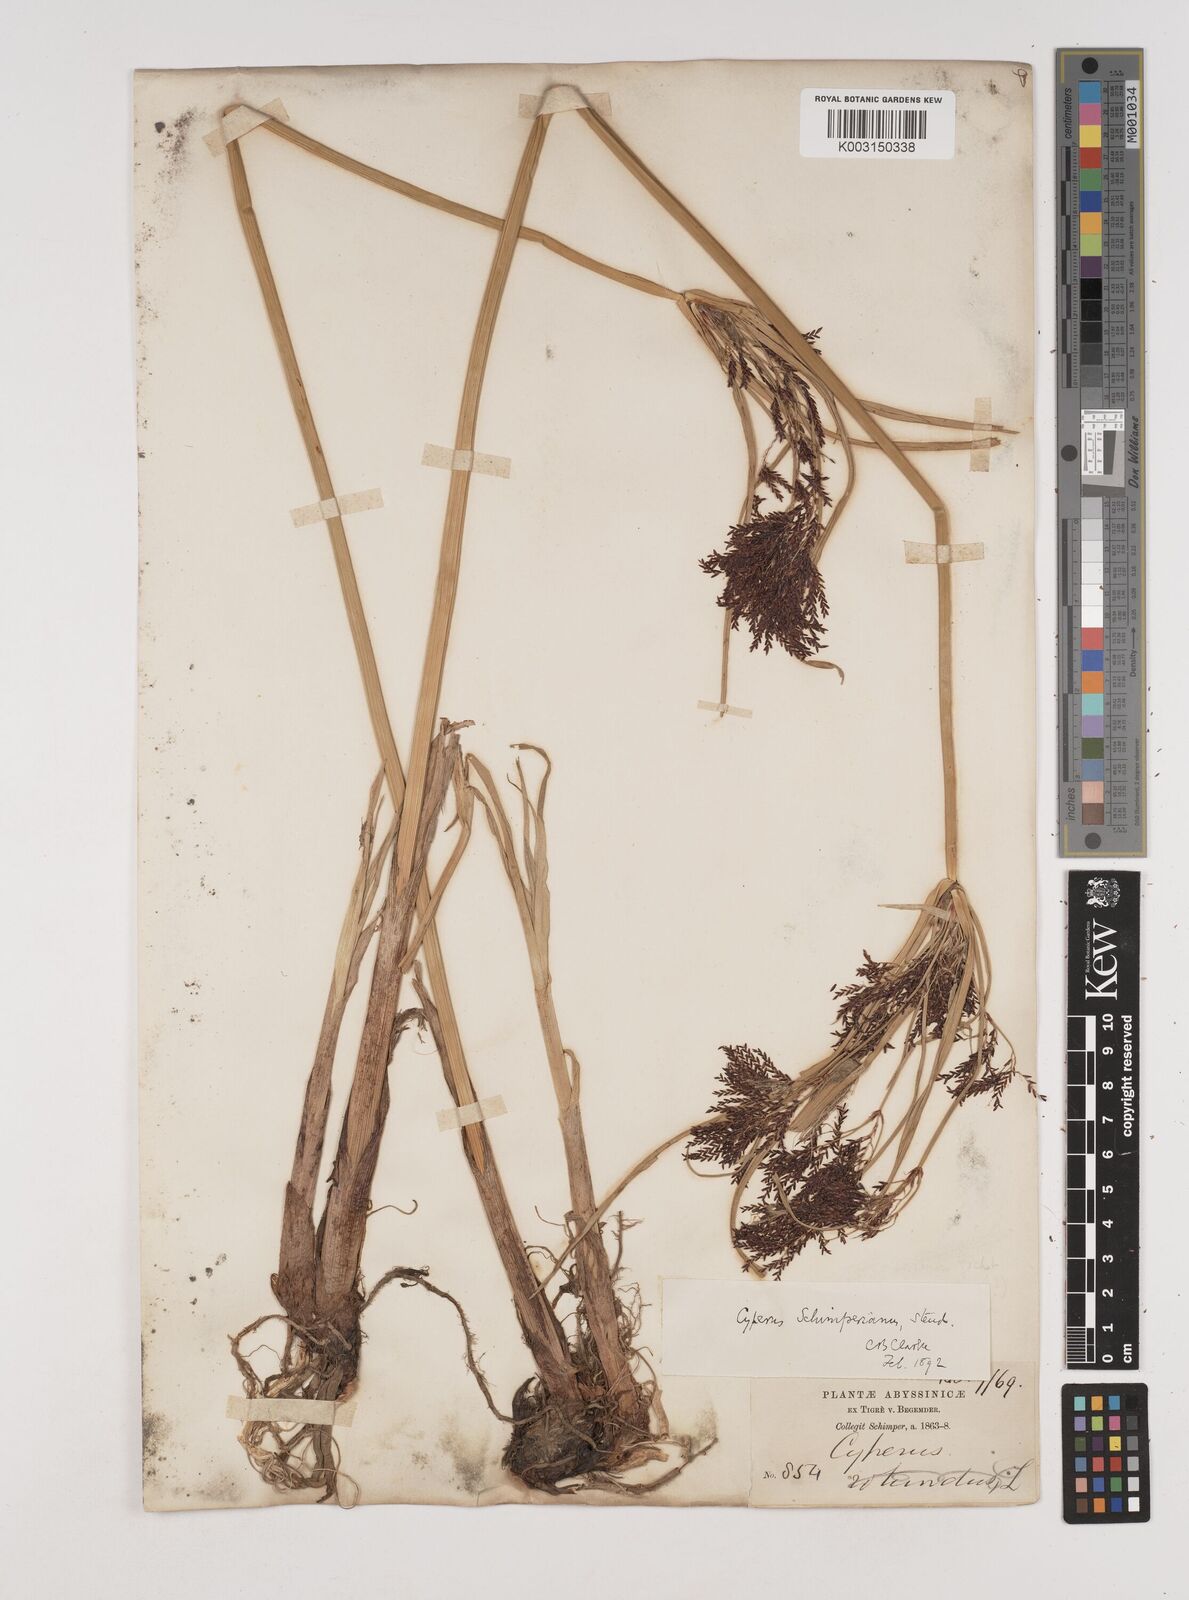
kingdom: Plantae
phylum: Tracheophyta
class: Liliopsida
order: Poales
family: Cyperaceae
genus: Cyperus
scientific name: Cyperus schimperianus
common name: Schimper flatsedge
